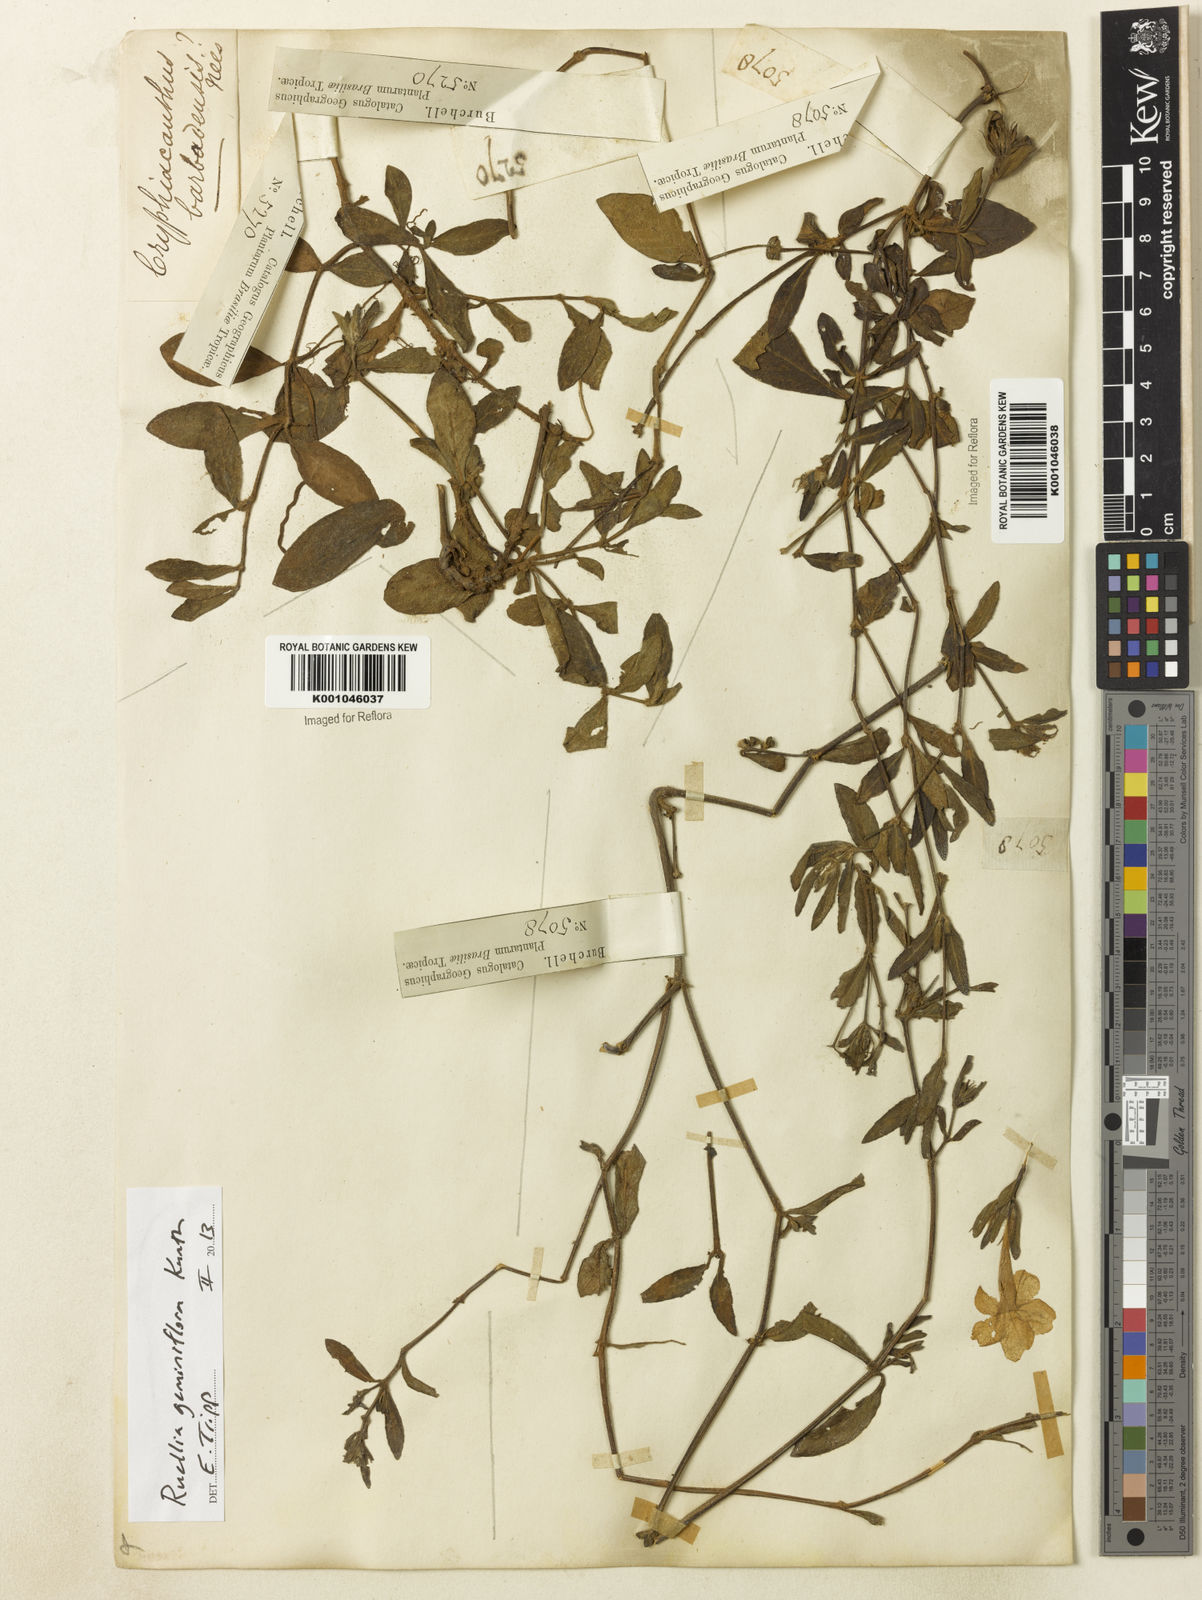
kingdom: Plantae
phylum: Tracheophyta
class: Magnoliopsida
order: Lamiales
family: Acanthaceae
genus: Ruellia
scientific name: Ruellia geminiflora
